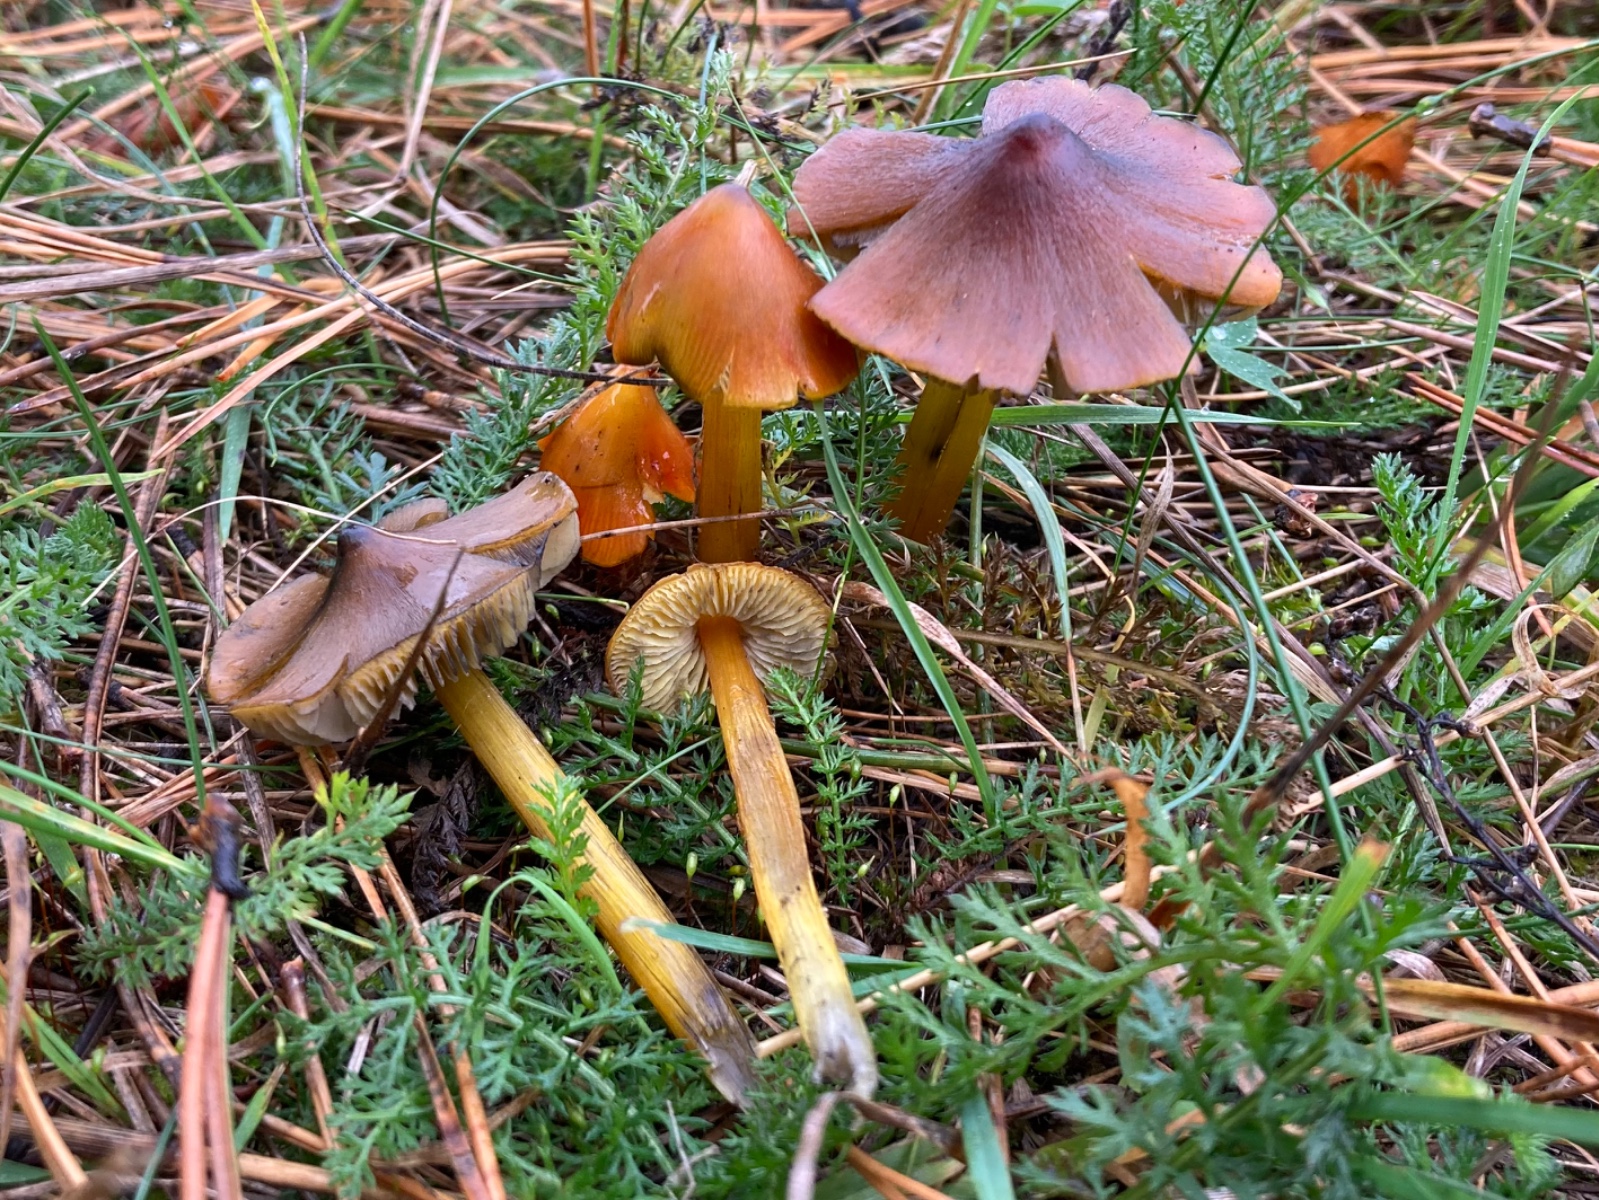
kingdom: Fungi
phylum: Basidiomycota
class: Agaricomycetes
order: Agaricales
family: Hygrophoraceae
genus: Hygrocybe
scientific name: Hygrocybe conica
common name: kegle-vokshat
